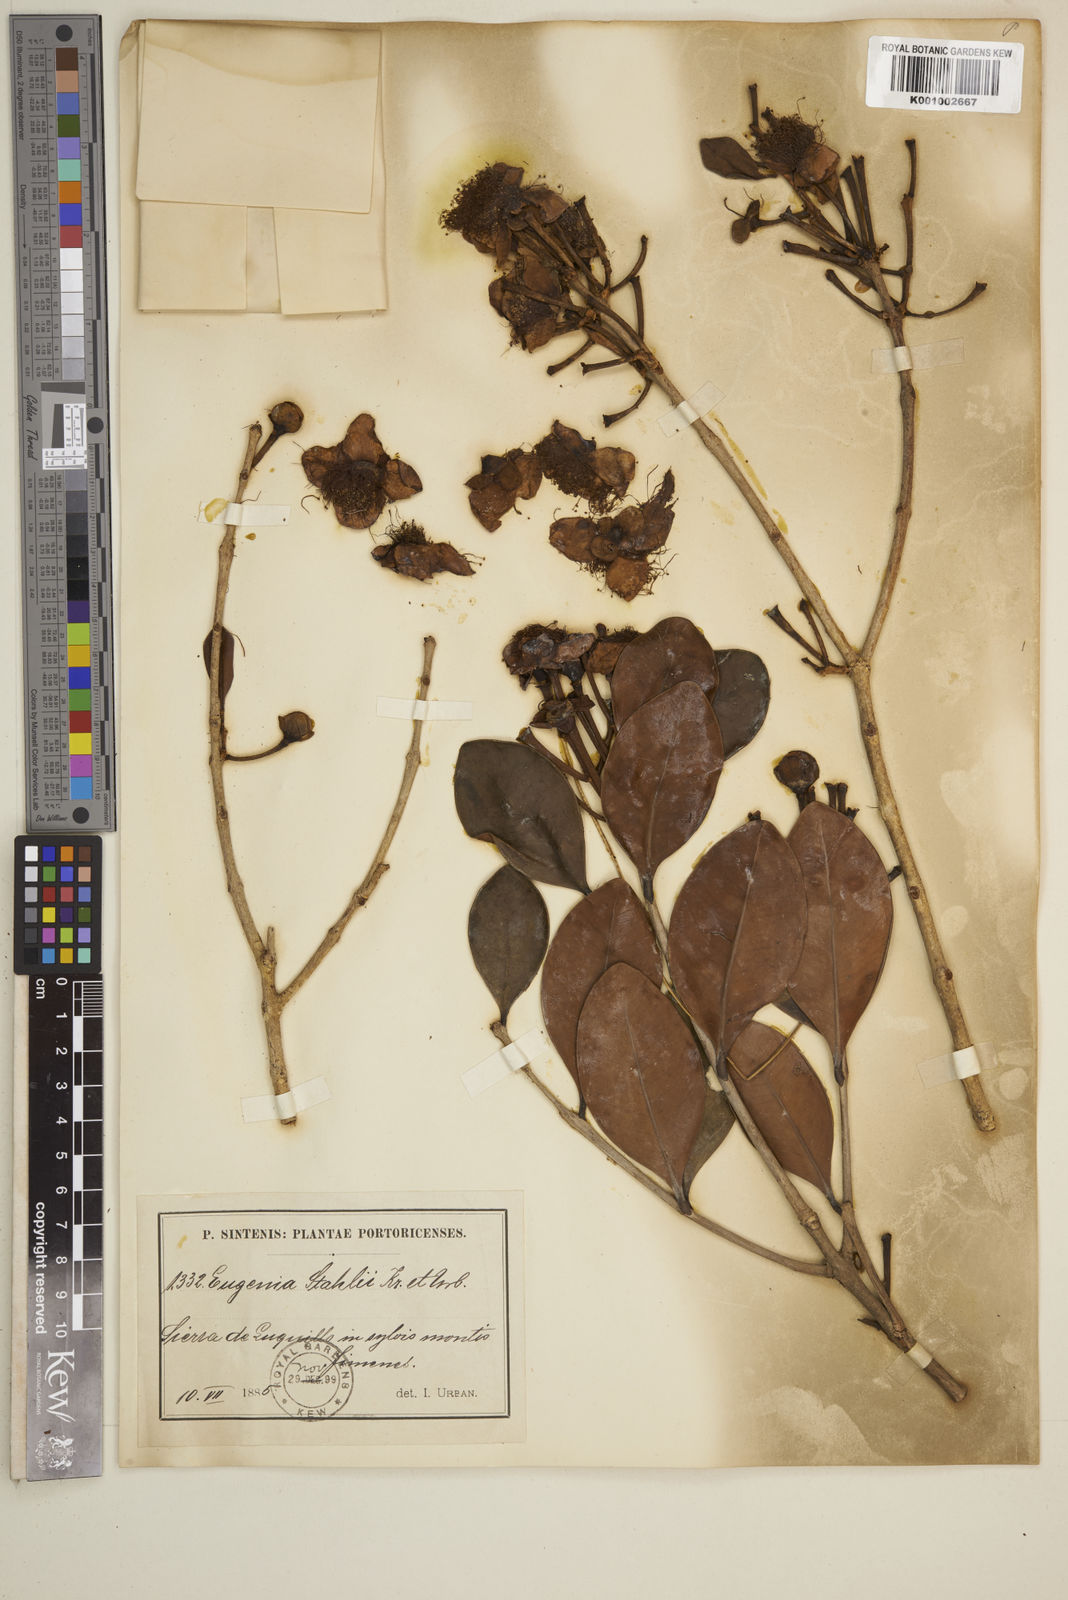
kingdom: Plantae
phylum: Tracheophyta
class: Magnoliopsida
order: Myrtales
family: Myrtaceae
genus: Eugenia
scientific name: Eugenia stahlii
